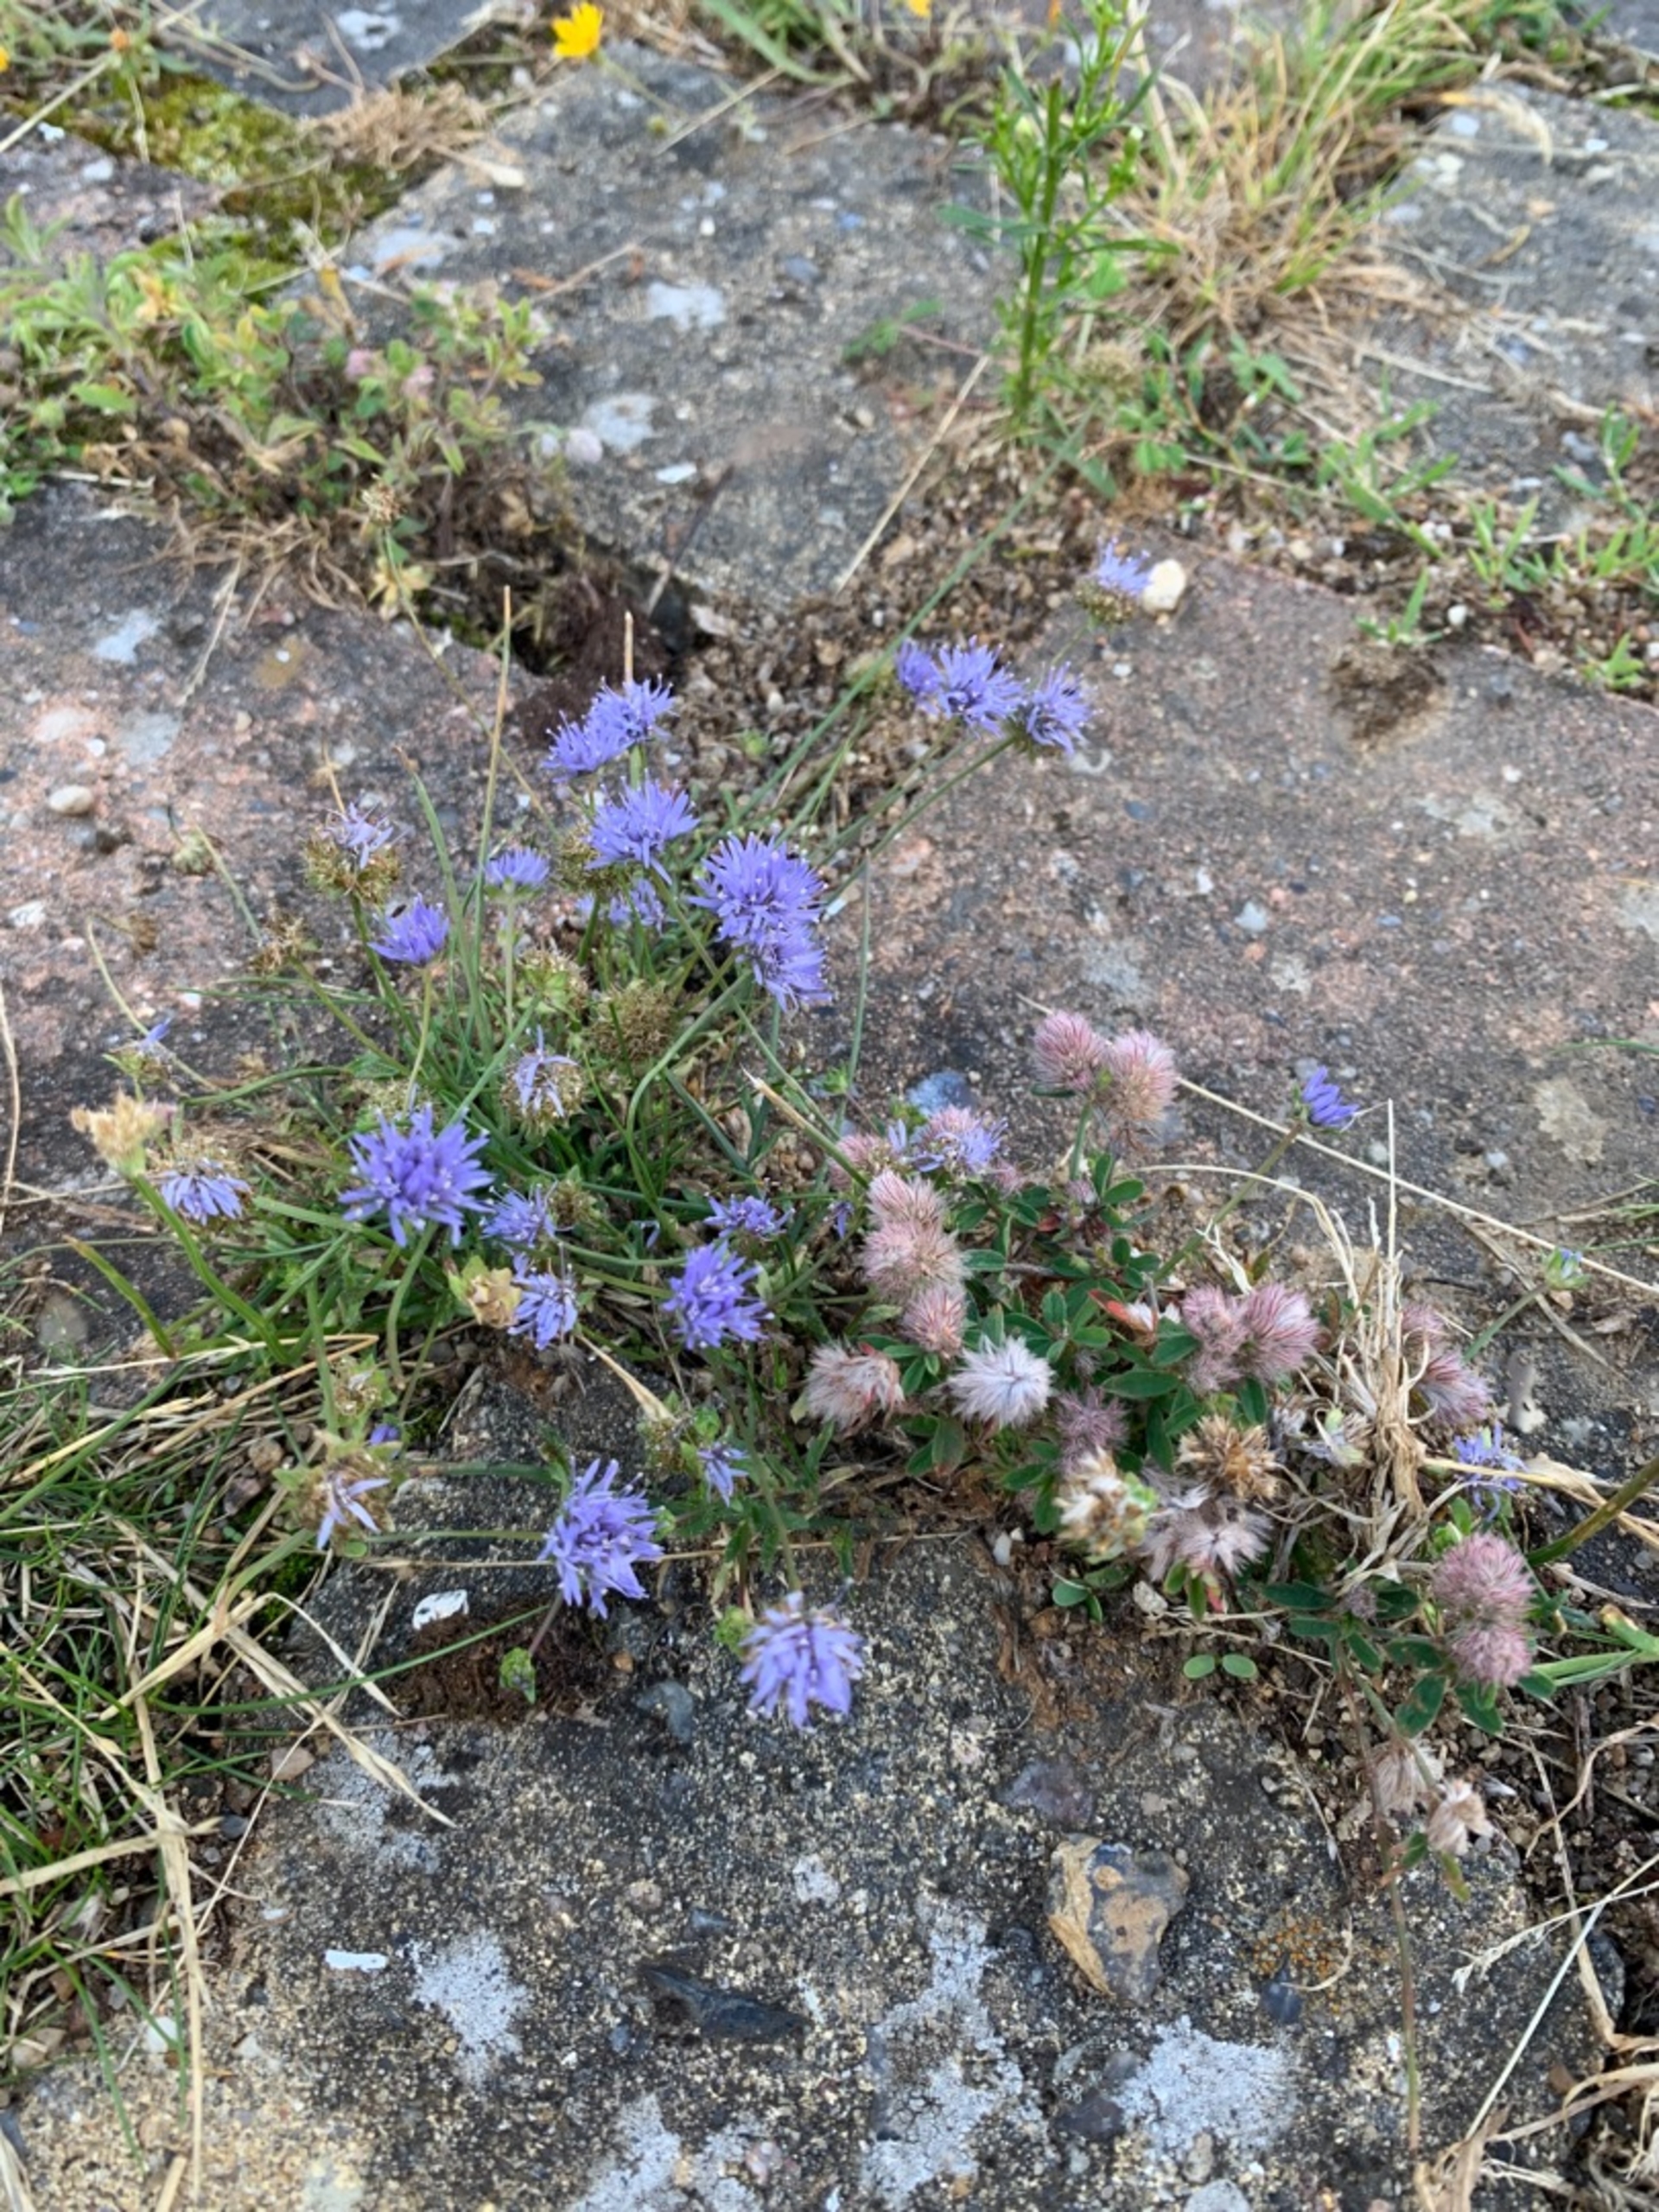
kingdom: Plantae
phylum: Tracheophyta
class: Magnoliopsida
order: Asterales
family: Campanulaceae
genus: Jasione
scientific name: Jasione montana
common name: Blåmunke
